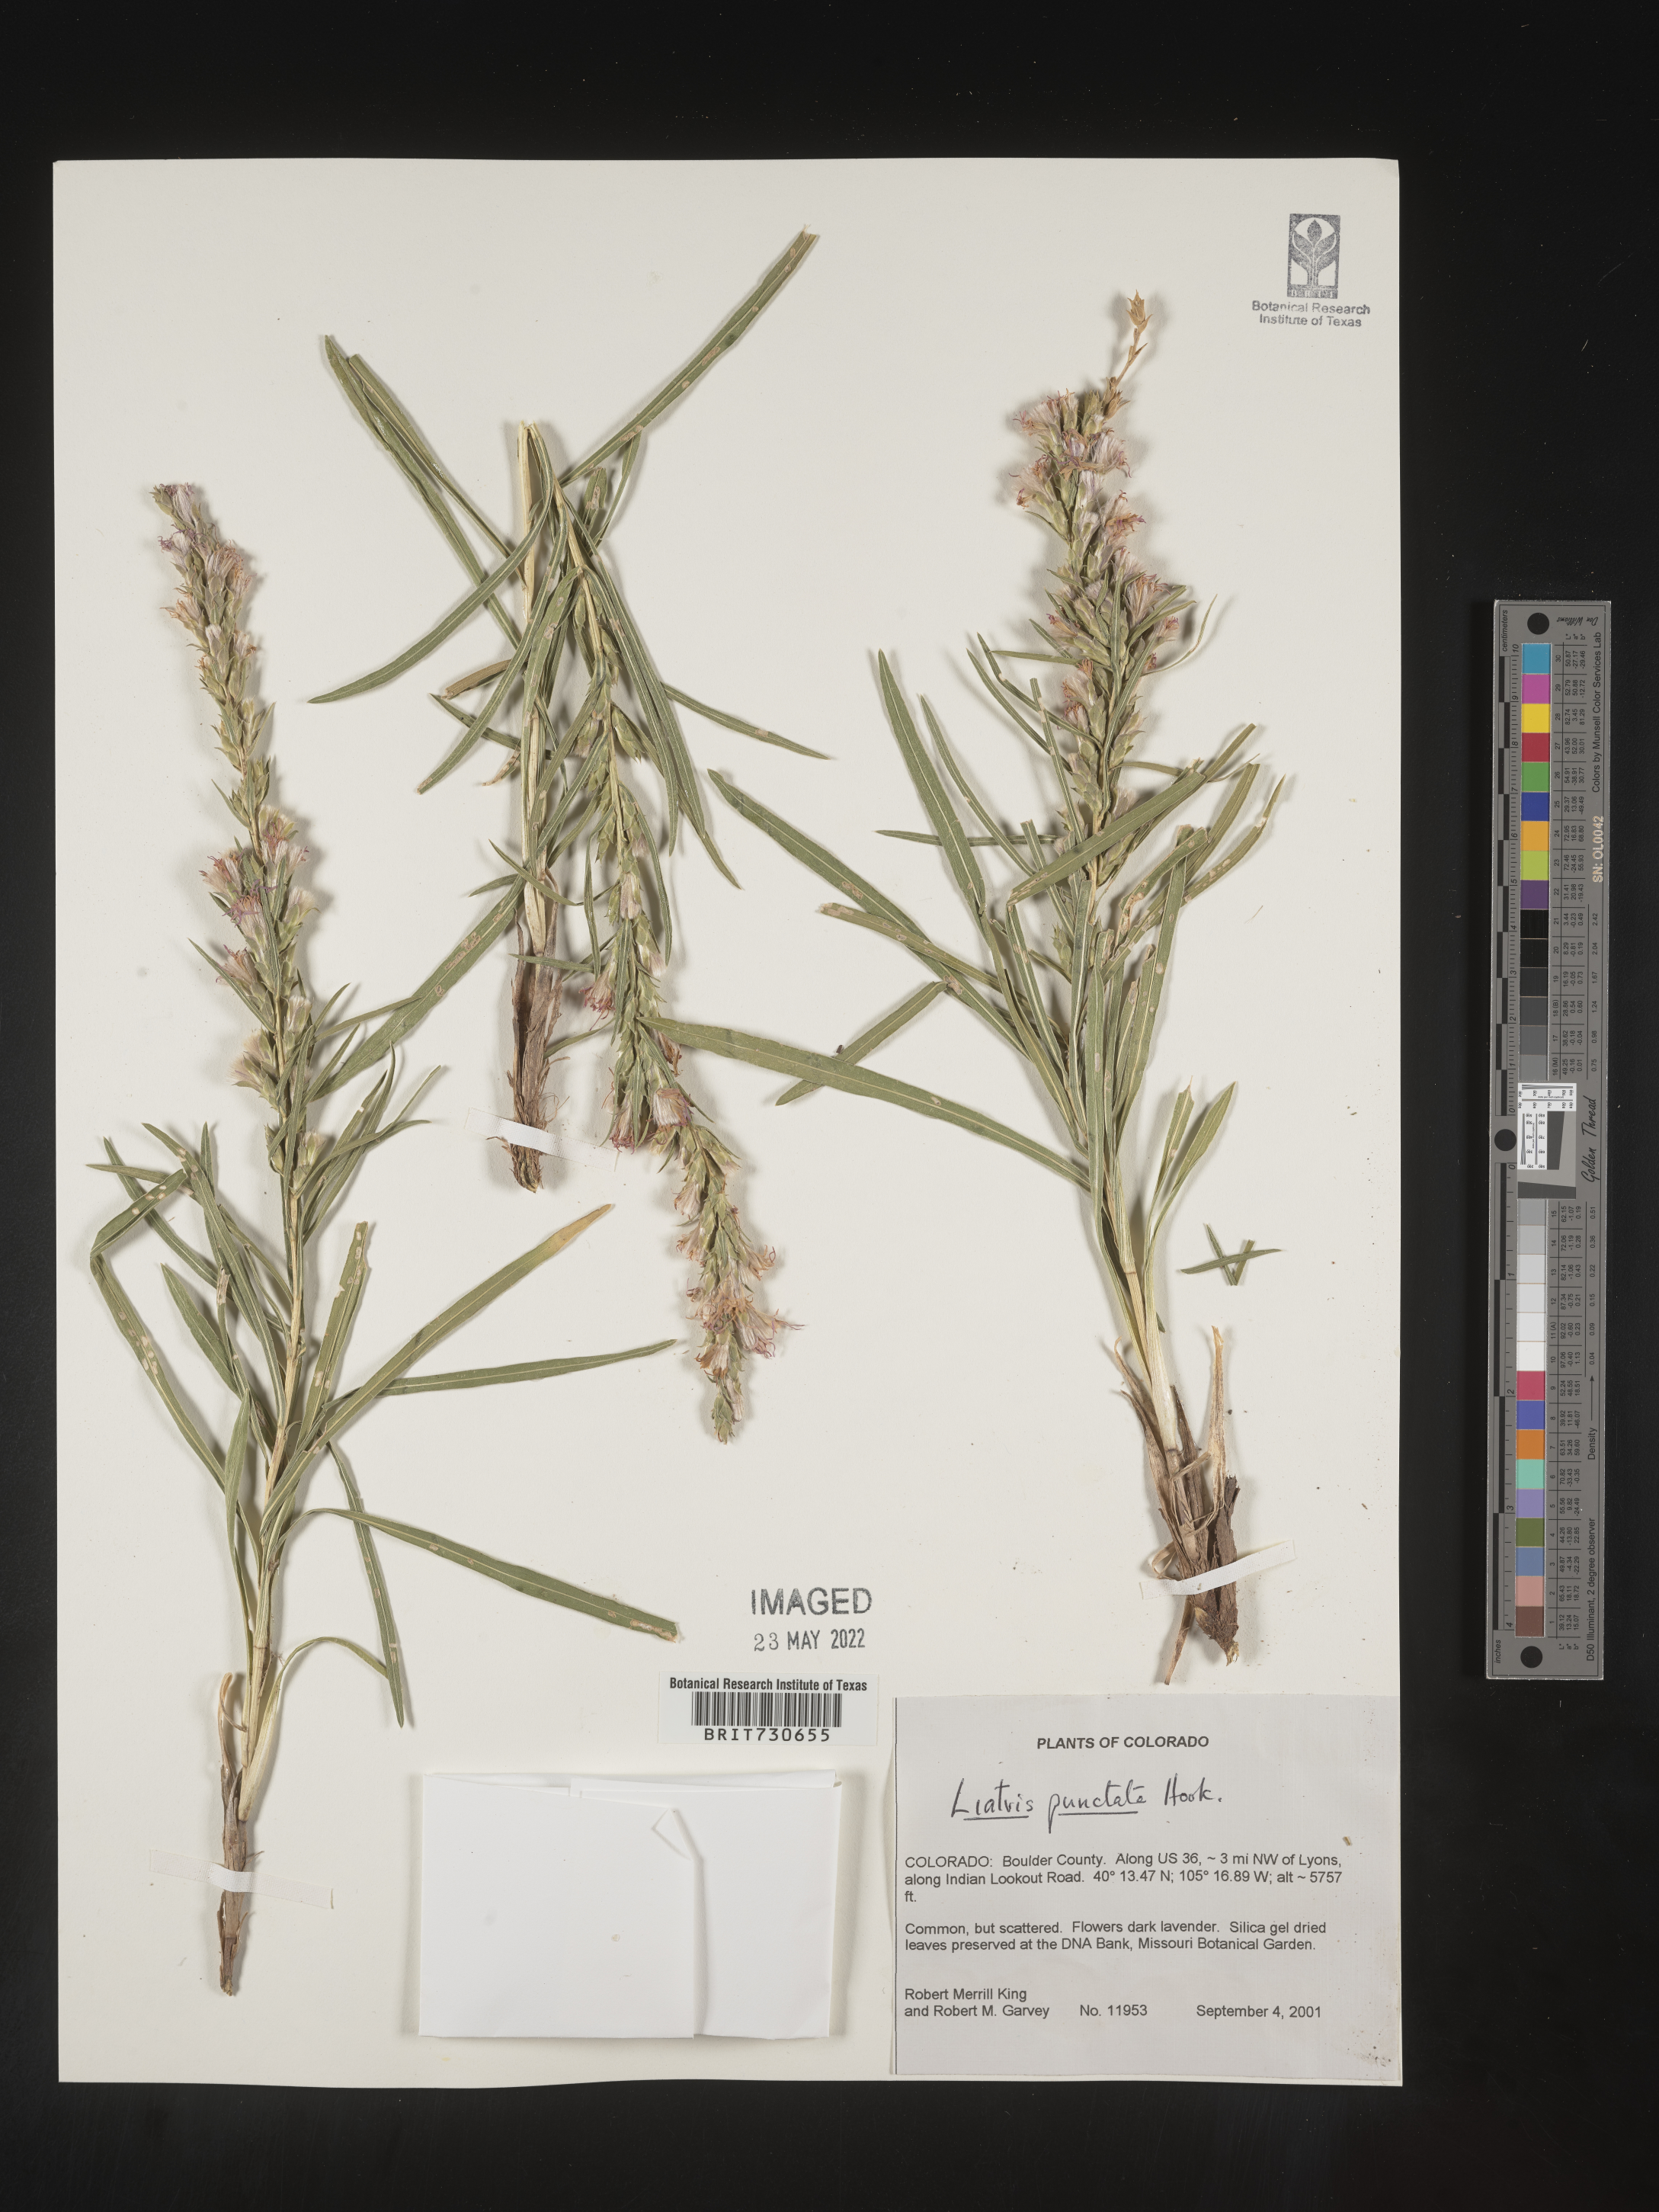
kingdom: Plantae
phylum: Tracheophyta
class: Magnoliopsida
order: Asterales
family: Asteraceae
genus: Liatris
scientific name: Liatris punctata
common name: Dotted gayfeather
